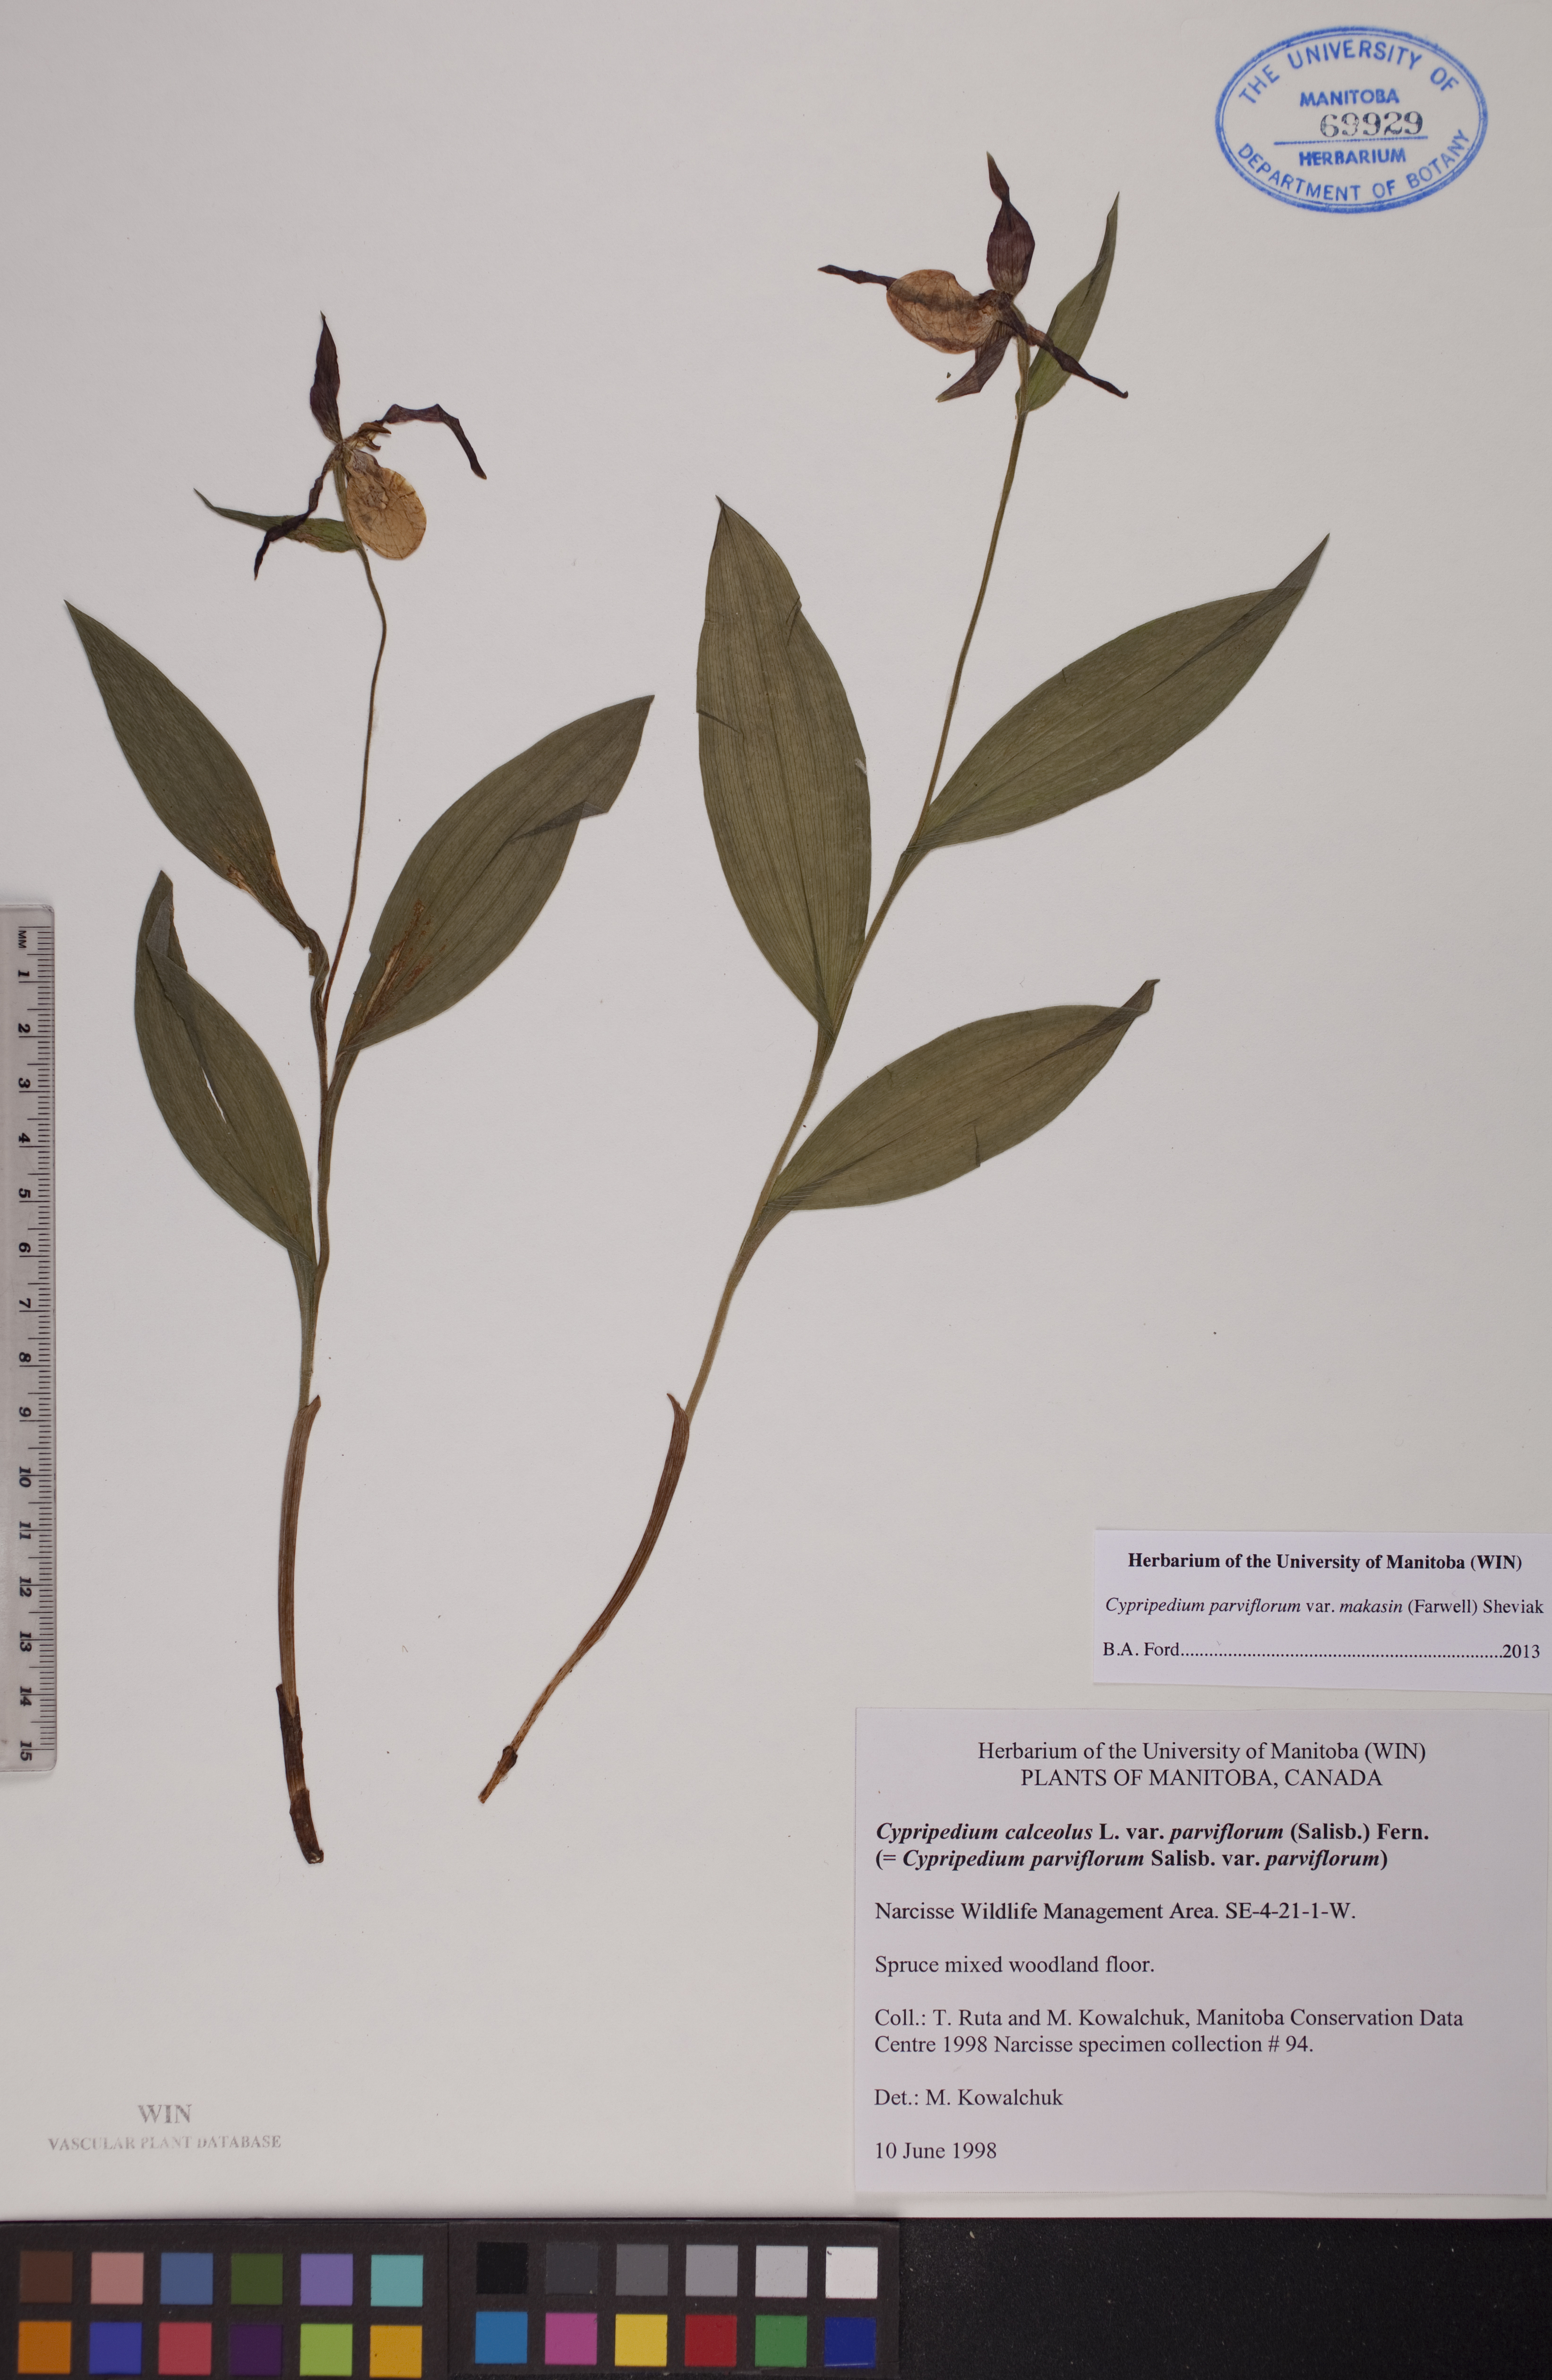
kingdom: Plantae
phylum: Tracheophyta
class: Liliopsida
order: Asparagales
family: Orchidaceae
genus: Cypripedium
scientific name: Cypripedium parviflorum
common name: American yellow lady's-slipper
